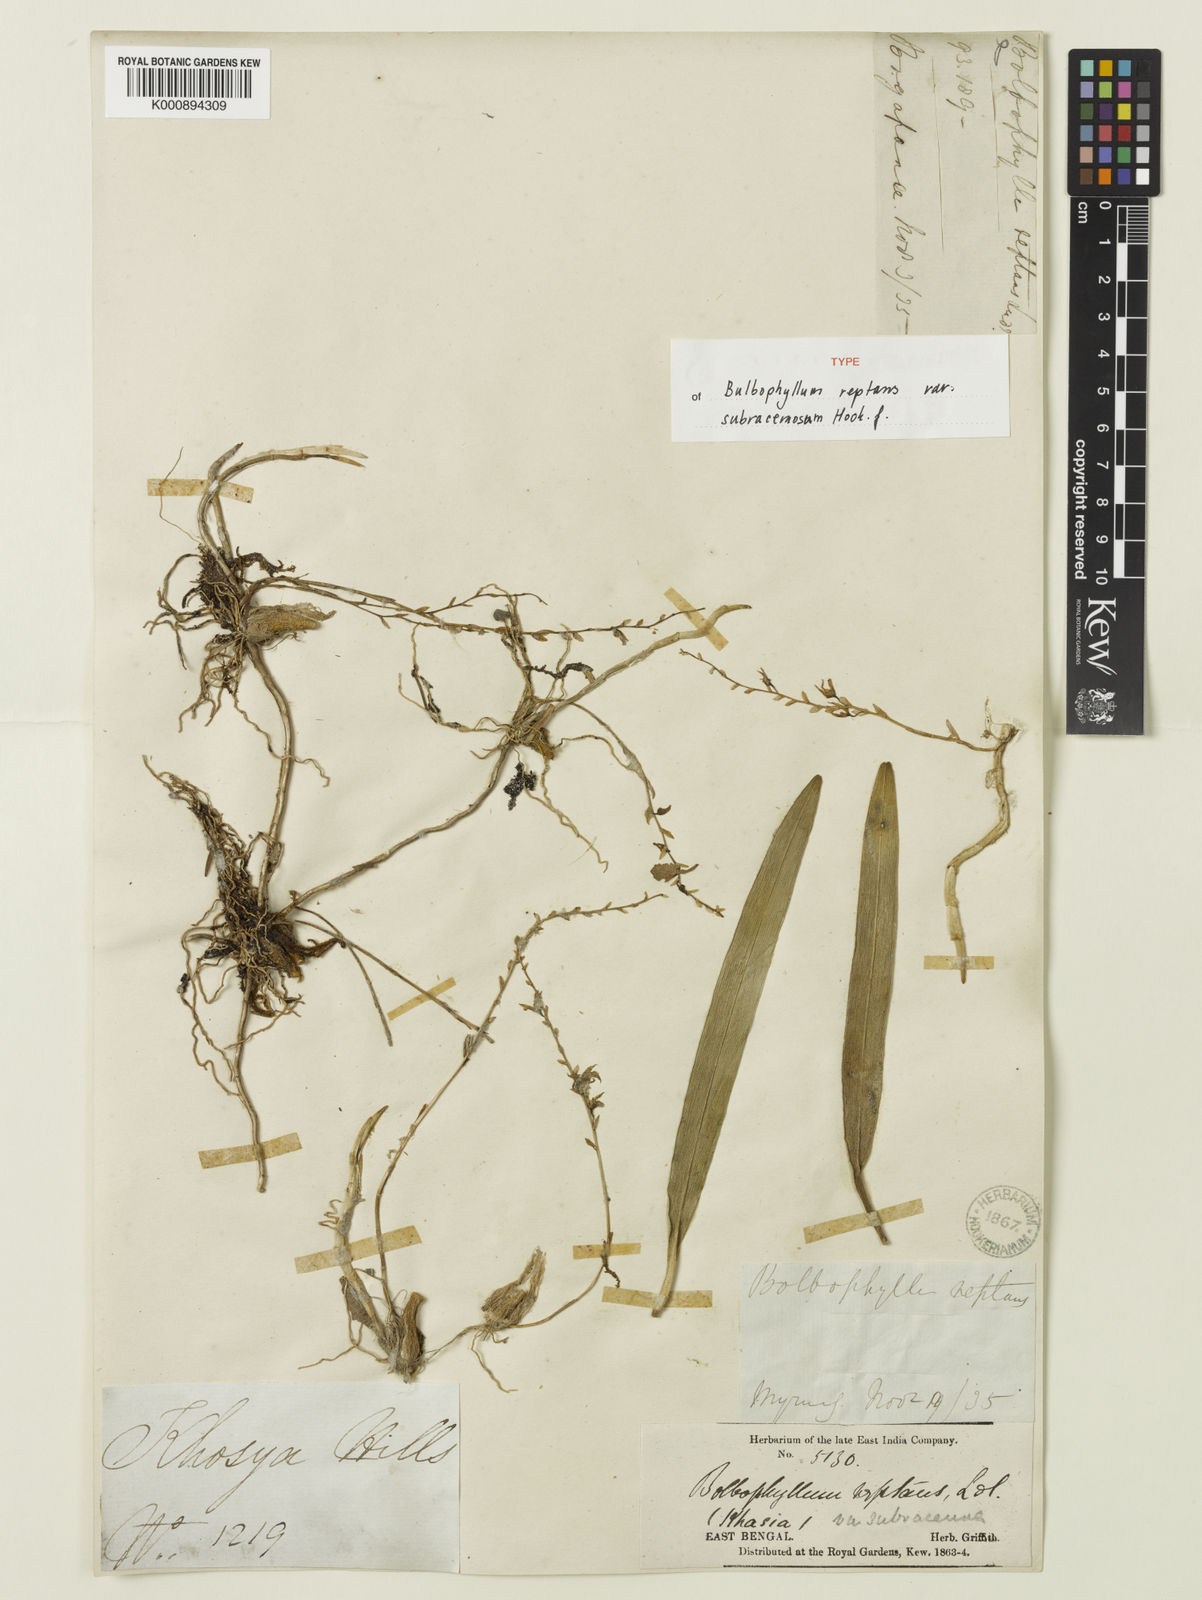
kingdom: Plantae
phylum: Tracheophyta
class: Liliopsida
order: Asparagales
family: Orchidaceae
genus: Bulbophyllum
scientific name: Bulbophyllum reptans
